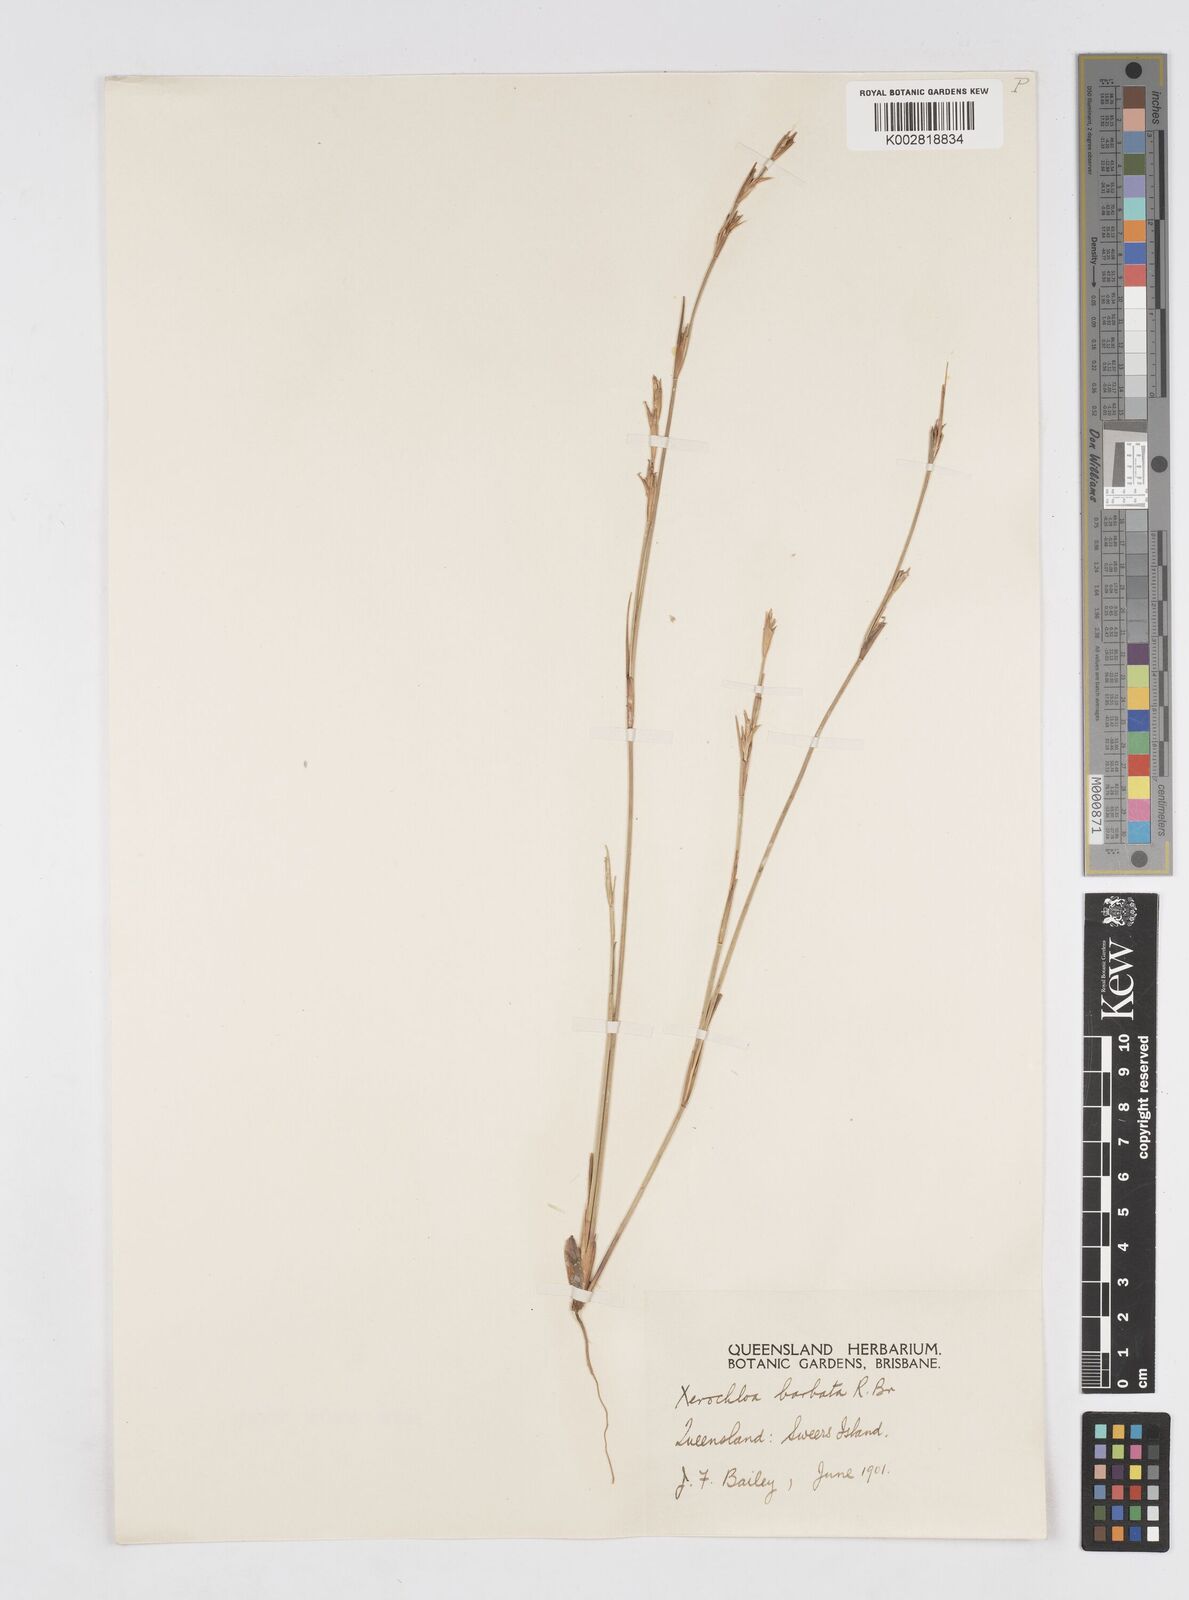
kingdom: Plantae
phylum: Tracheophyta
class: Liliopsida
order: Poales
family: Poaceae
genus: Xerochloa
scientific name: Xerochloa barbata
